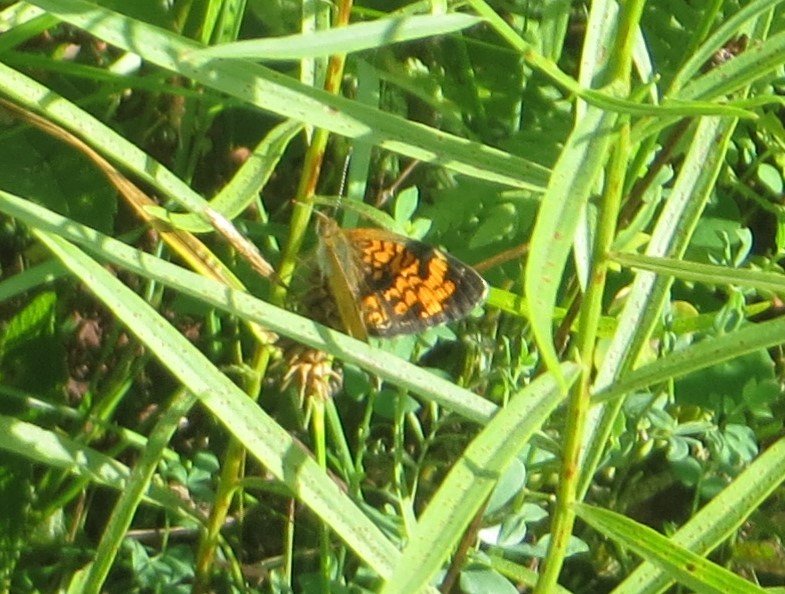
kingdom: Animalia
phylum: Arthropoda
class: Insecta
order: Lepidoptera
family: Nymphalidae
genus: Phyciodes
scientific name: Phyciodes tharos
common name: Northern Crescent
